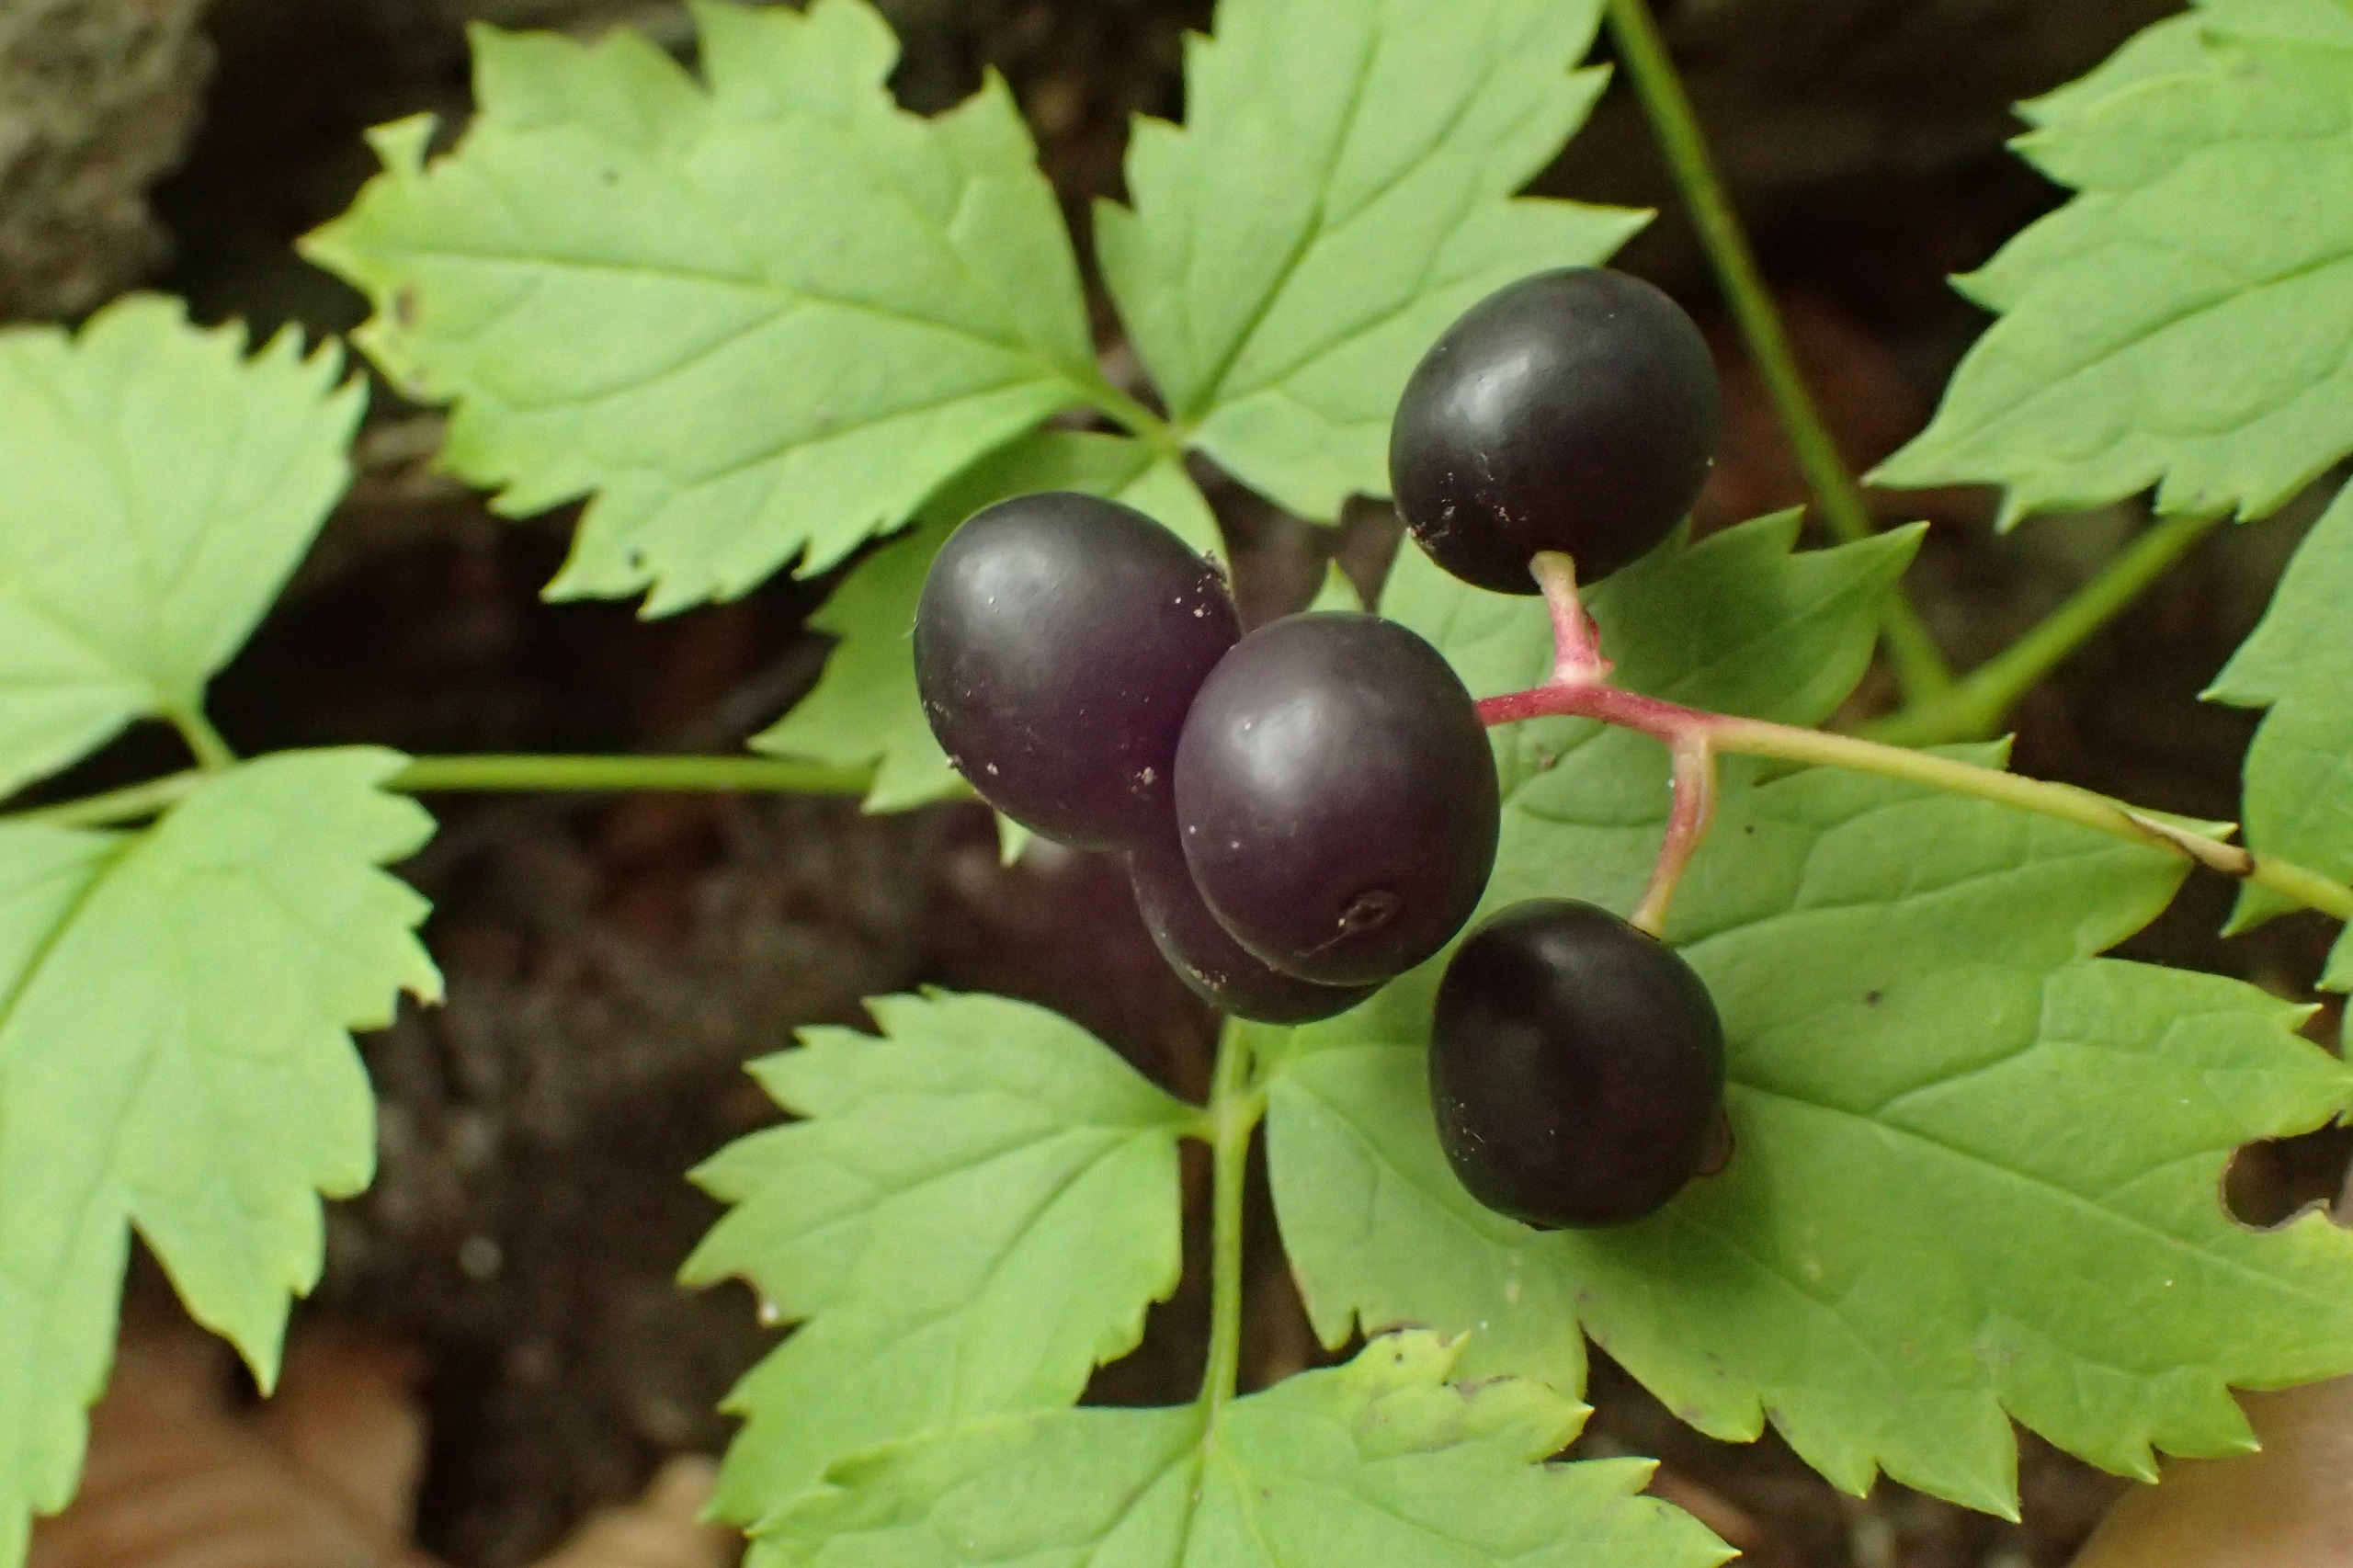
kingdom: Plantae
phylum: Tracheophyta
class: Magnoliopsida
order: Ranunculales
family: Ranunculaceae
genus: Actaea
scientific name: Actaea spicata
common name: Druemunke
